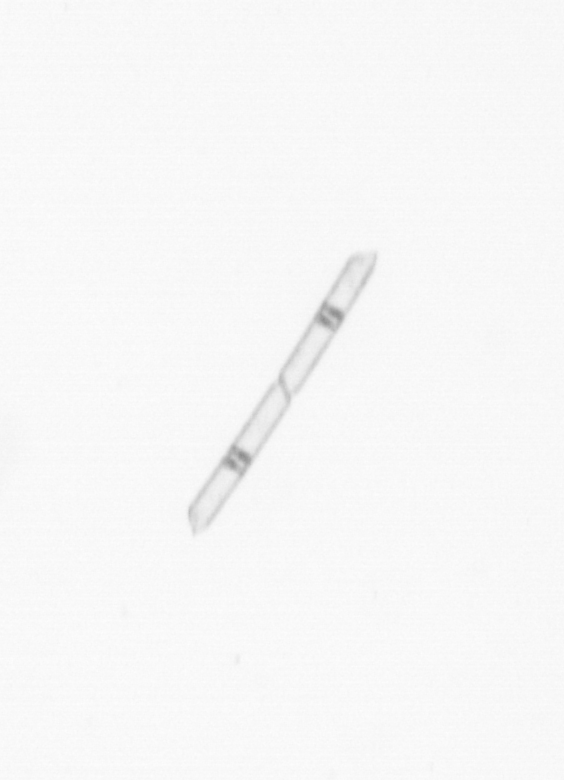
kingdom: Chromista
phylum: Ochrophyta
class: Bacillariophyceae
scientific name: Bacillariophyceae
